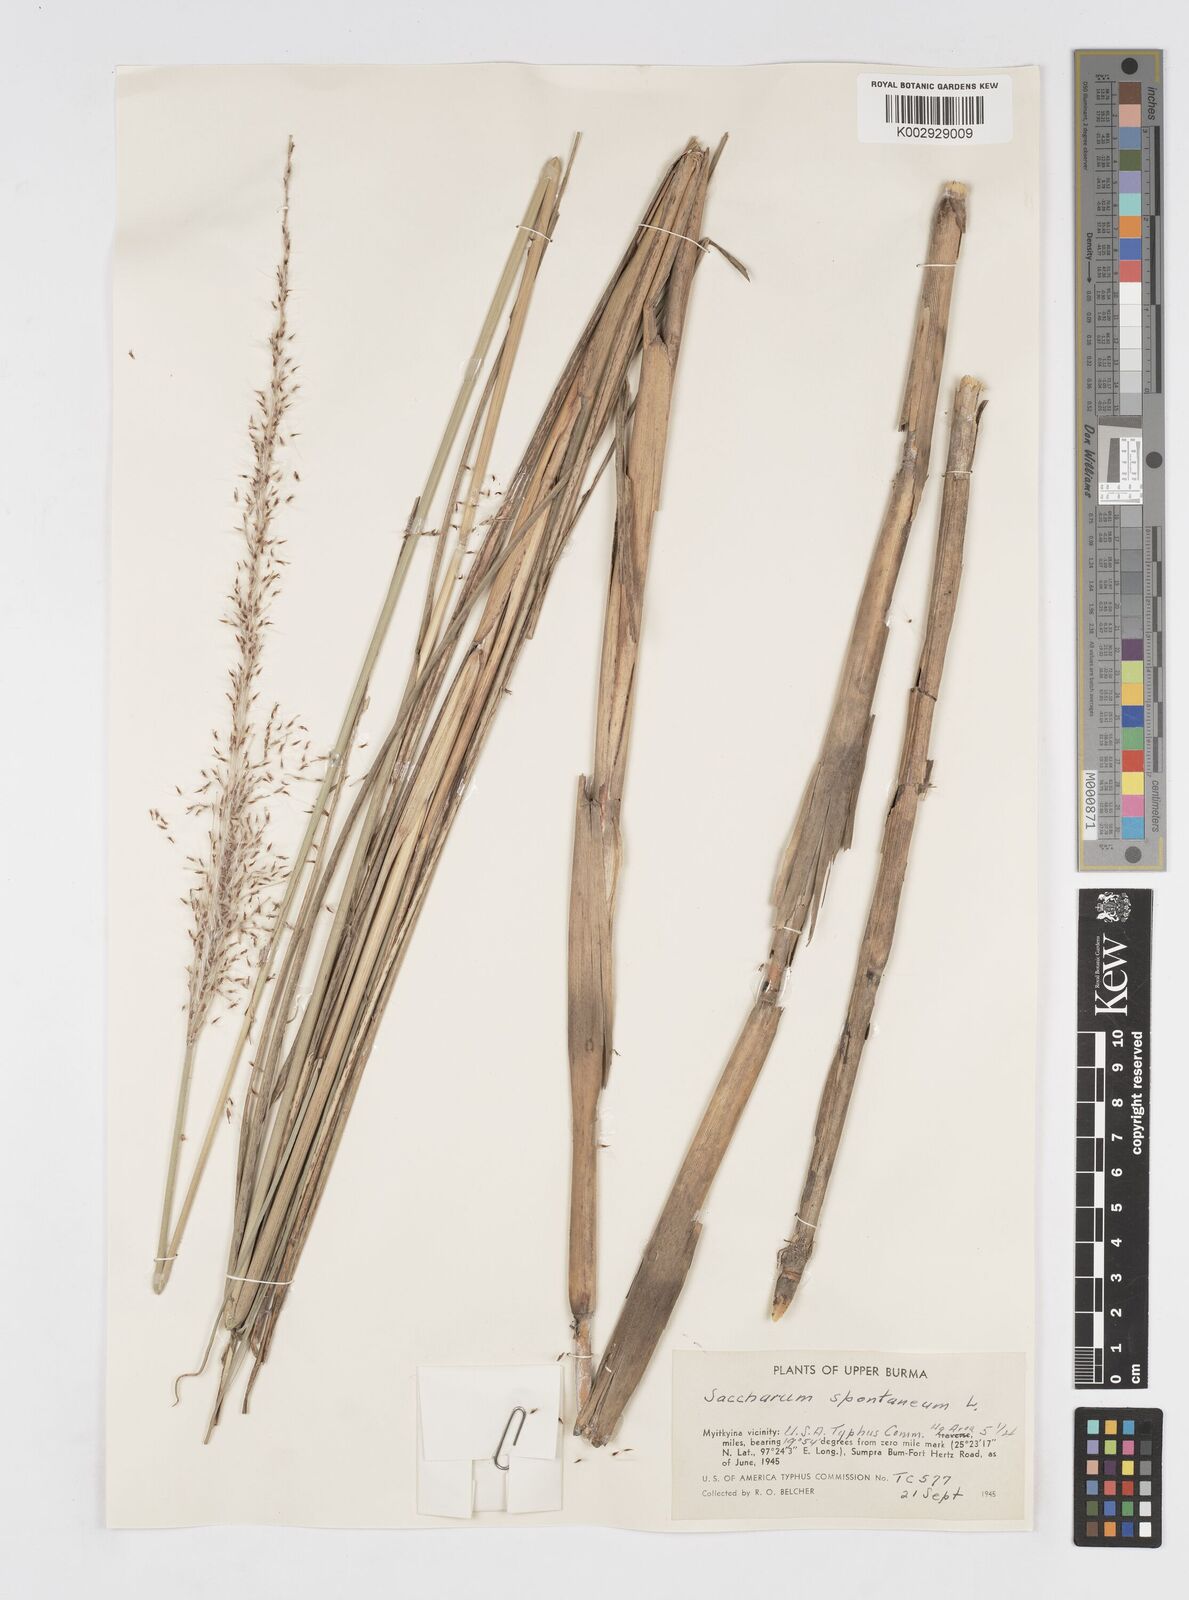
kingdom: Plantae
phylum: Tracheophyta
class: Liliopsida
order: Poales
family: Poaceae
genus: Saccharum
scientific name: Saccharum spontaneum
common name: Wild sugarcane
